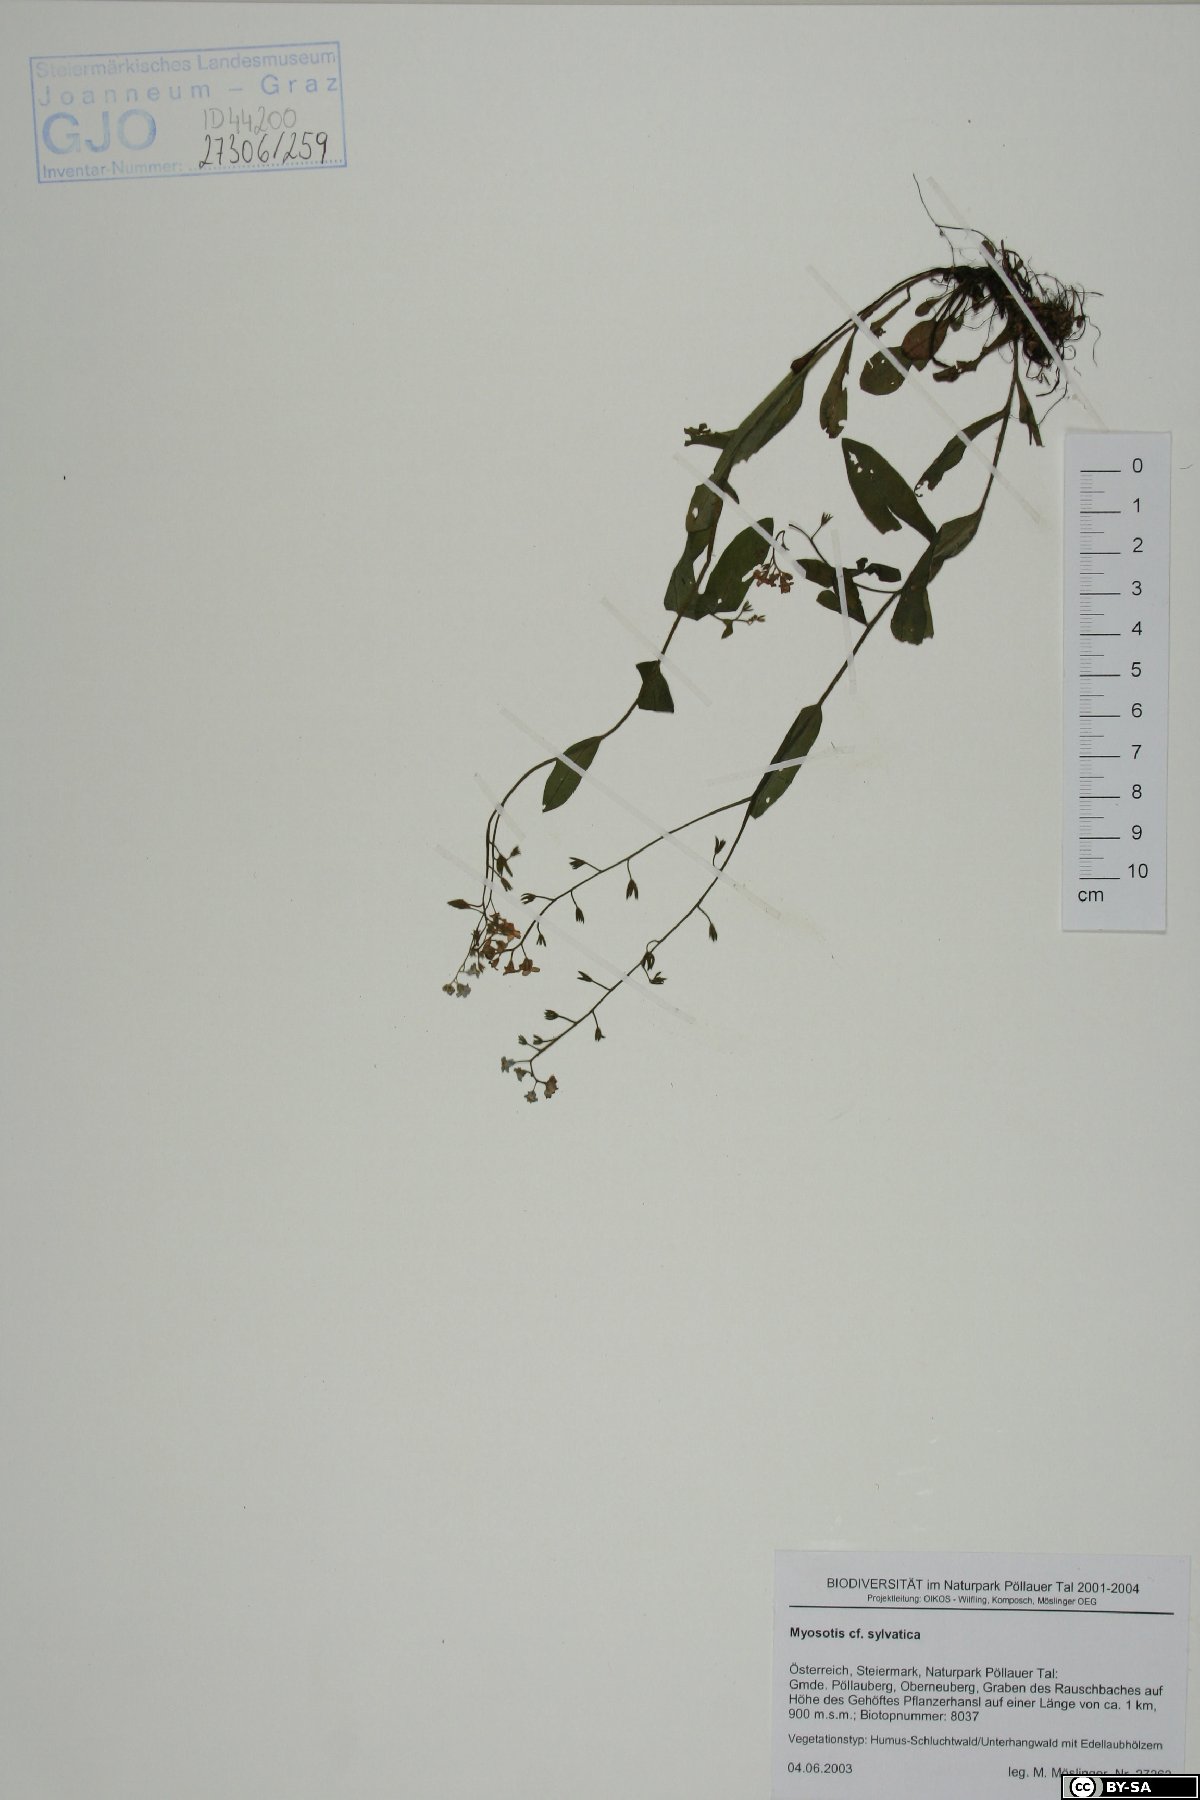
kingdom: Plantae
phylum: Tracheophyta
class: Magnoliopsida
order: Boraginales
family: Boraginaceae
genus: Myosotis
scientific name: Myosotis sylvatica
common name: Wood forget-me-not
